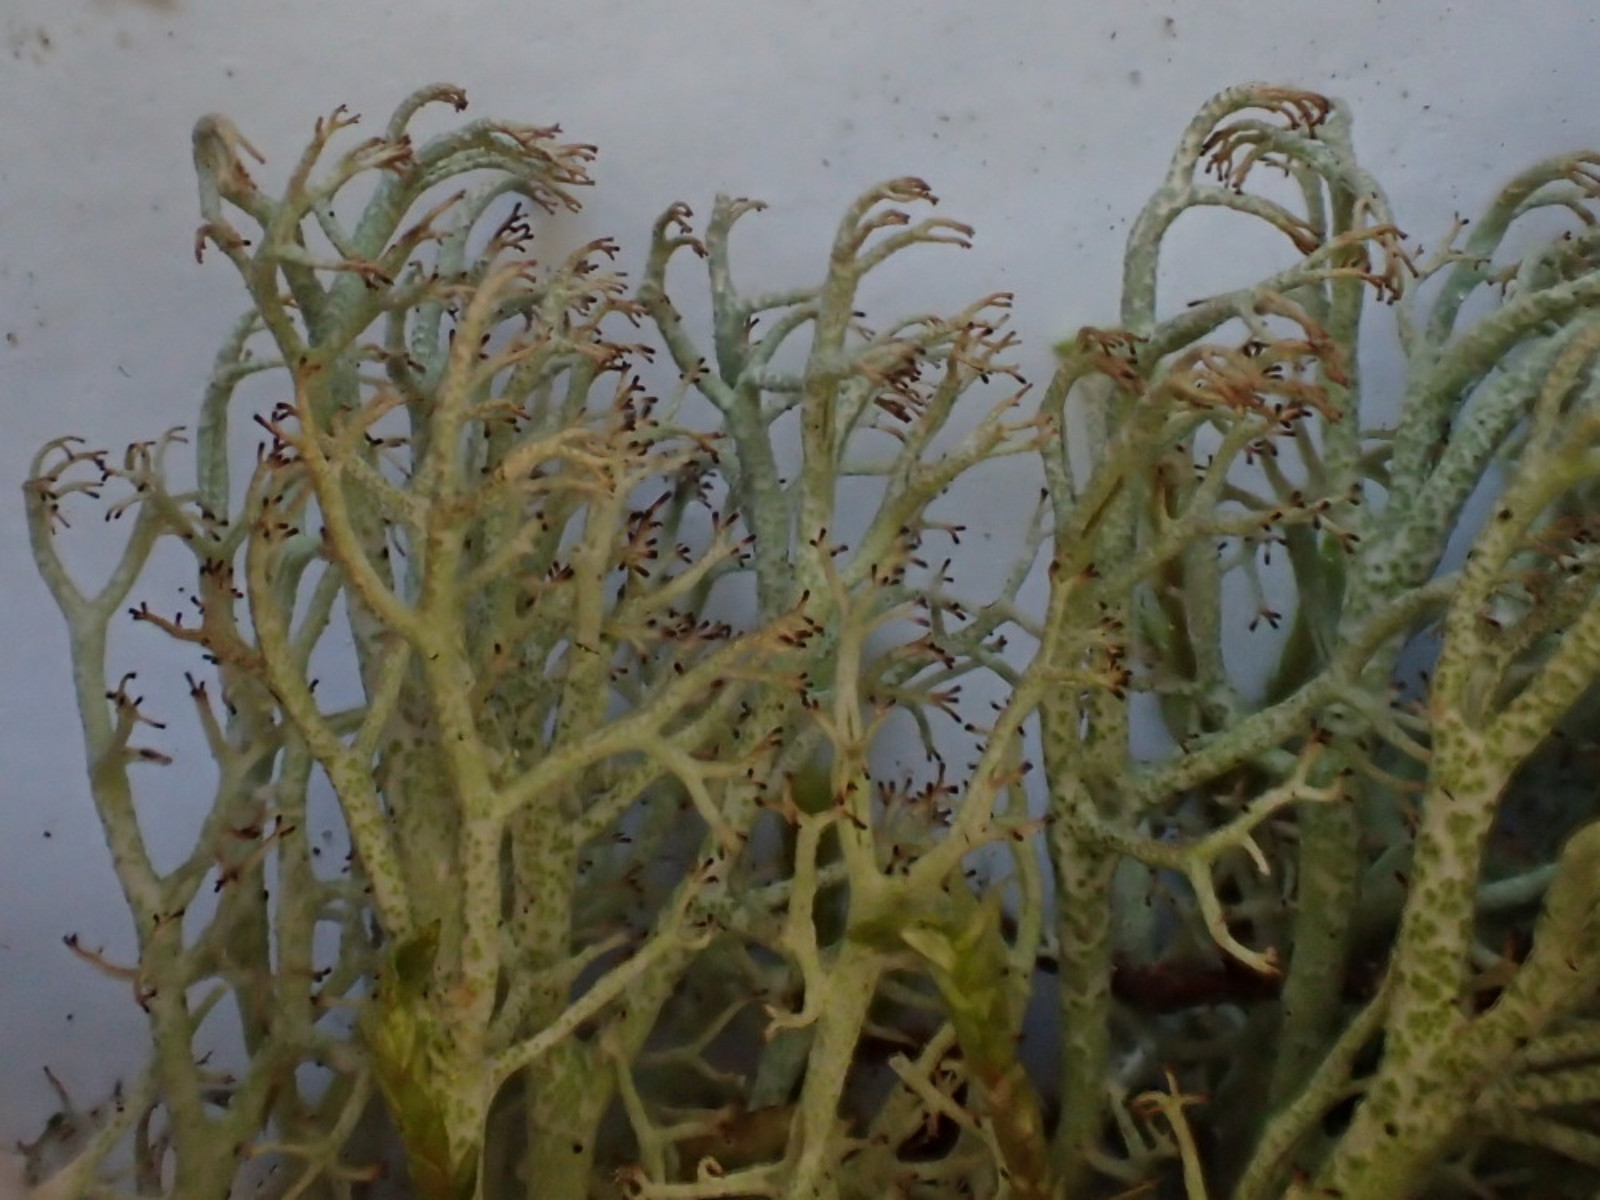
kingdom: Fungi
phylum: Ascomycota
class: Lecanoromycetes
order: Lecanorales
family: Cladoniaceae
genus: Cladonia
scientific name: Cladonia ciliata
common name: spinkel rensdyrlav
